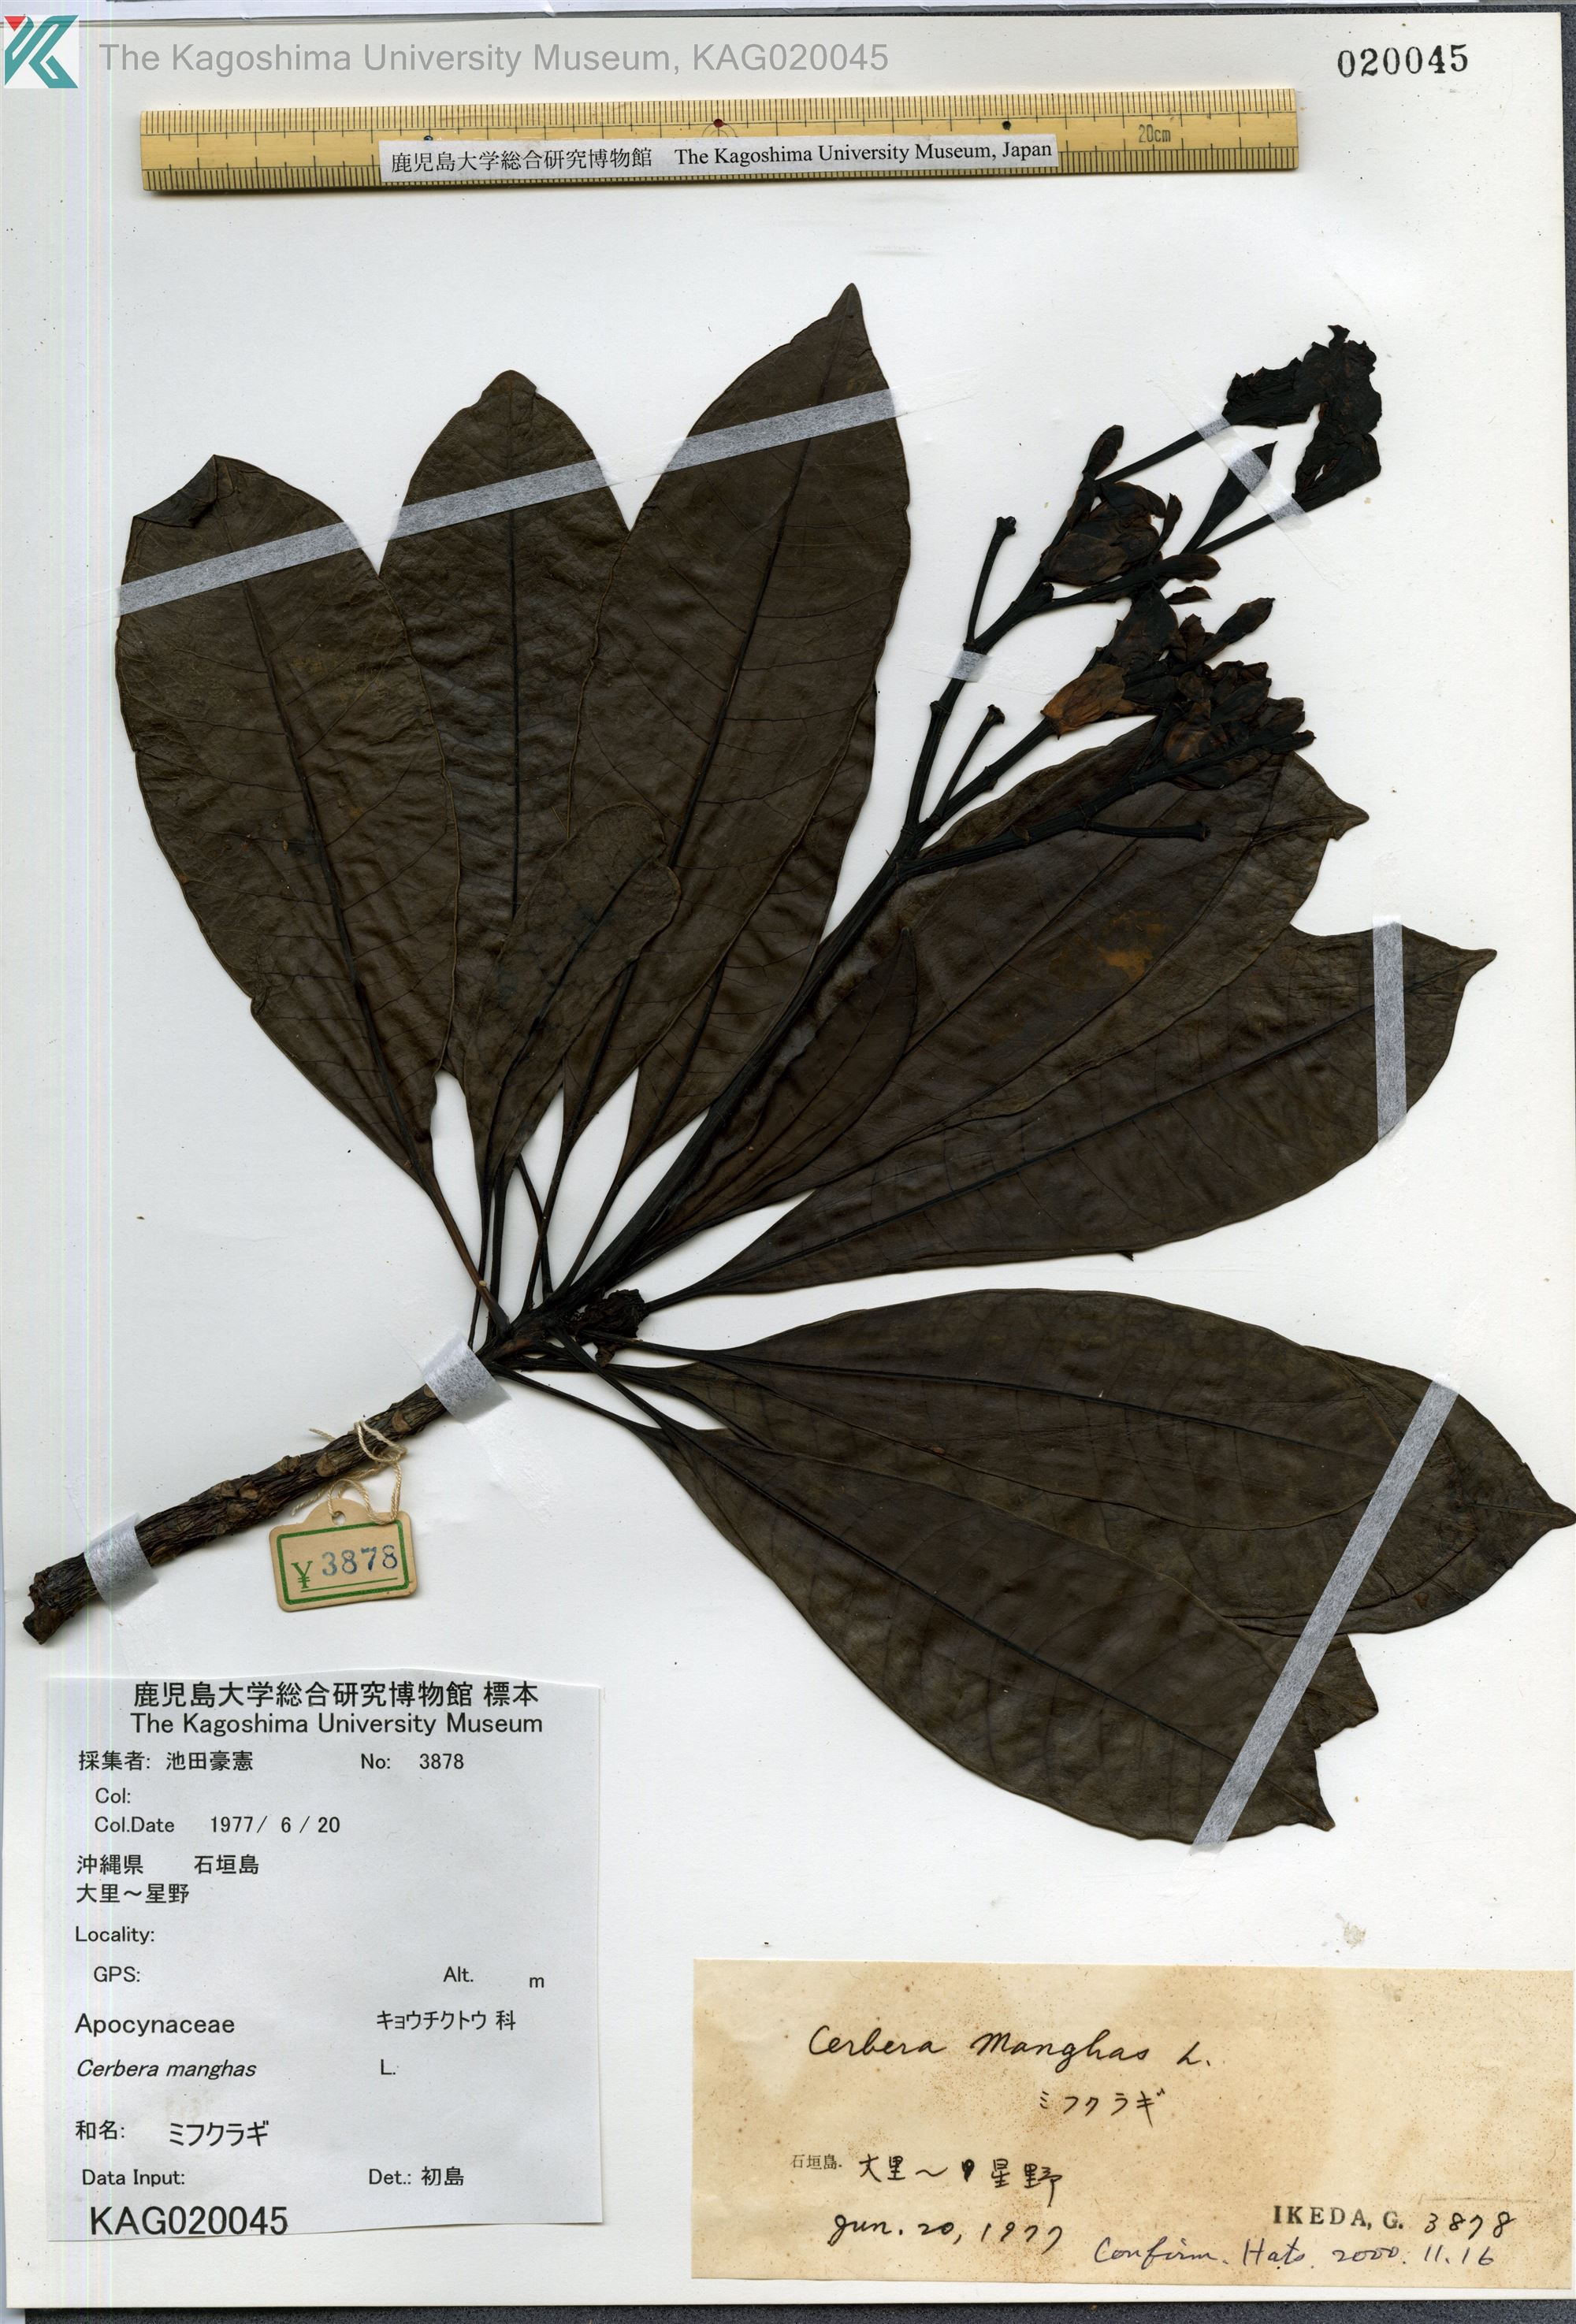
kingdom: Plantae
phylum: Tracheophyta
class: Magnoliopsida
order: Gentianales
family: Apocynaceae
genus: Cerbera
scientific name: Cerbera manghas
